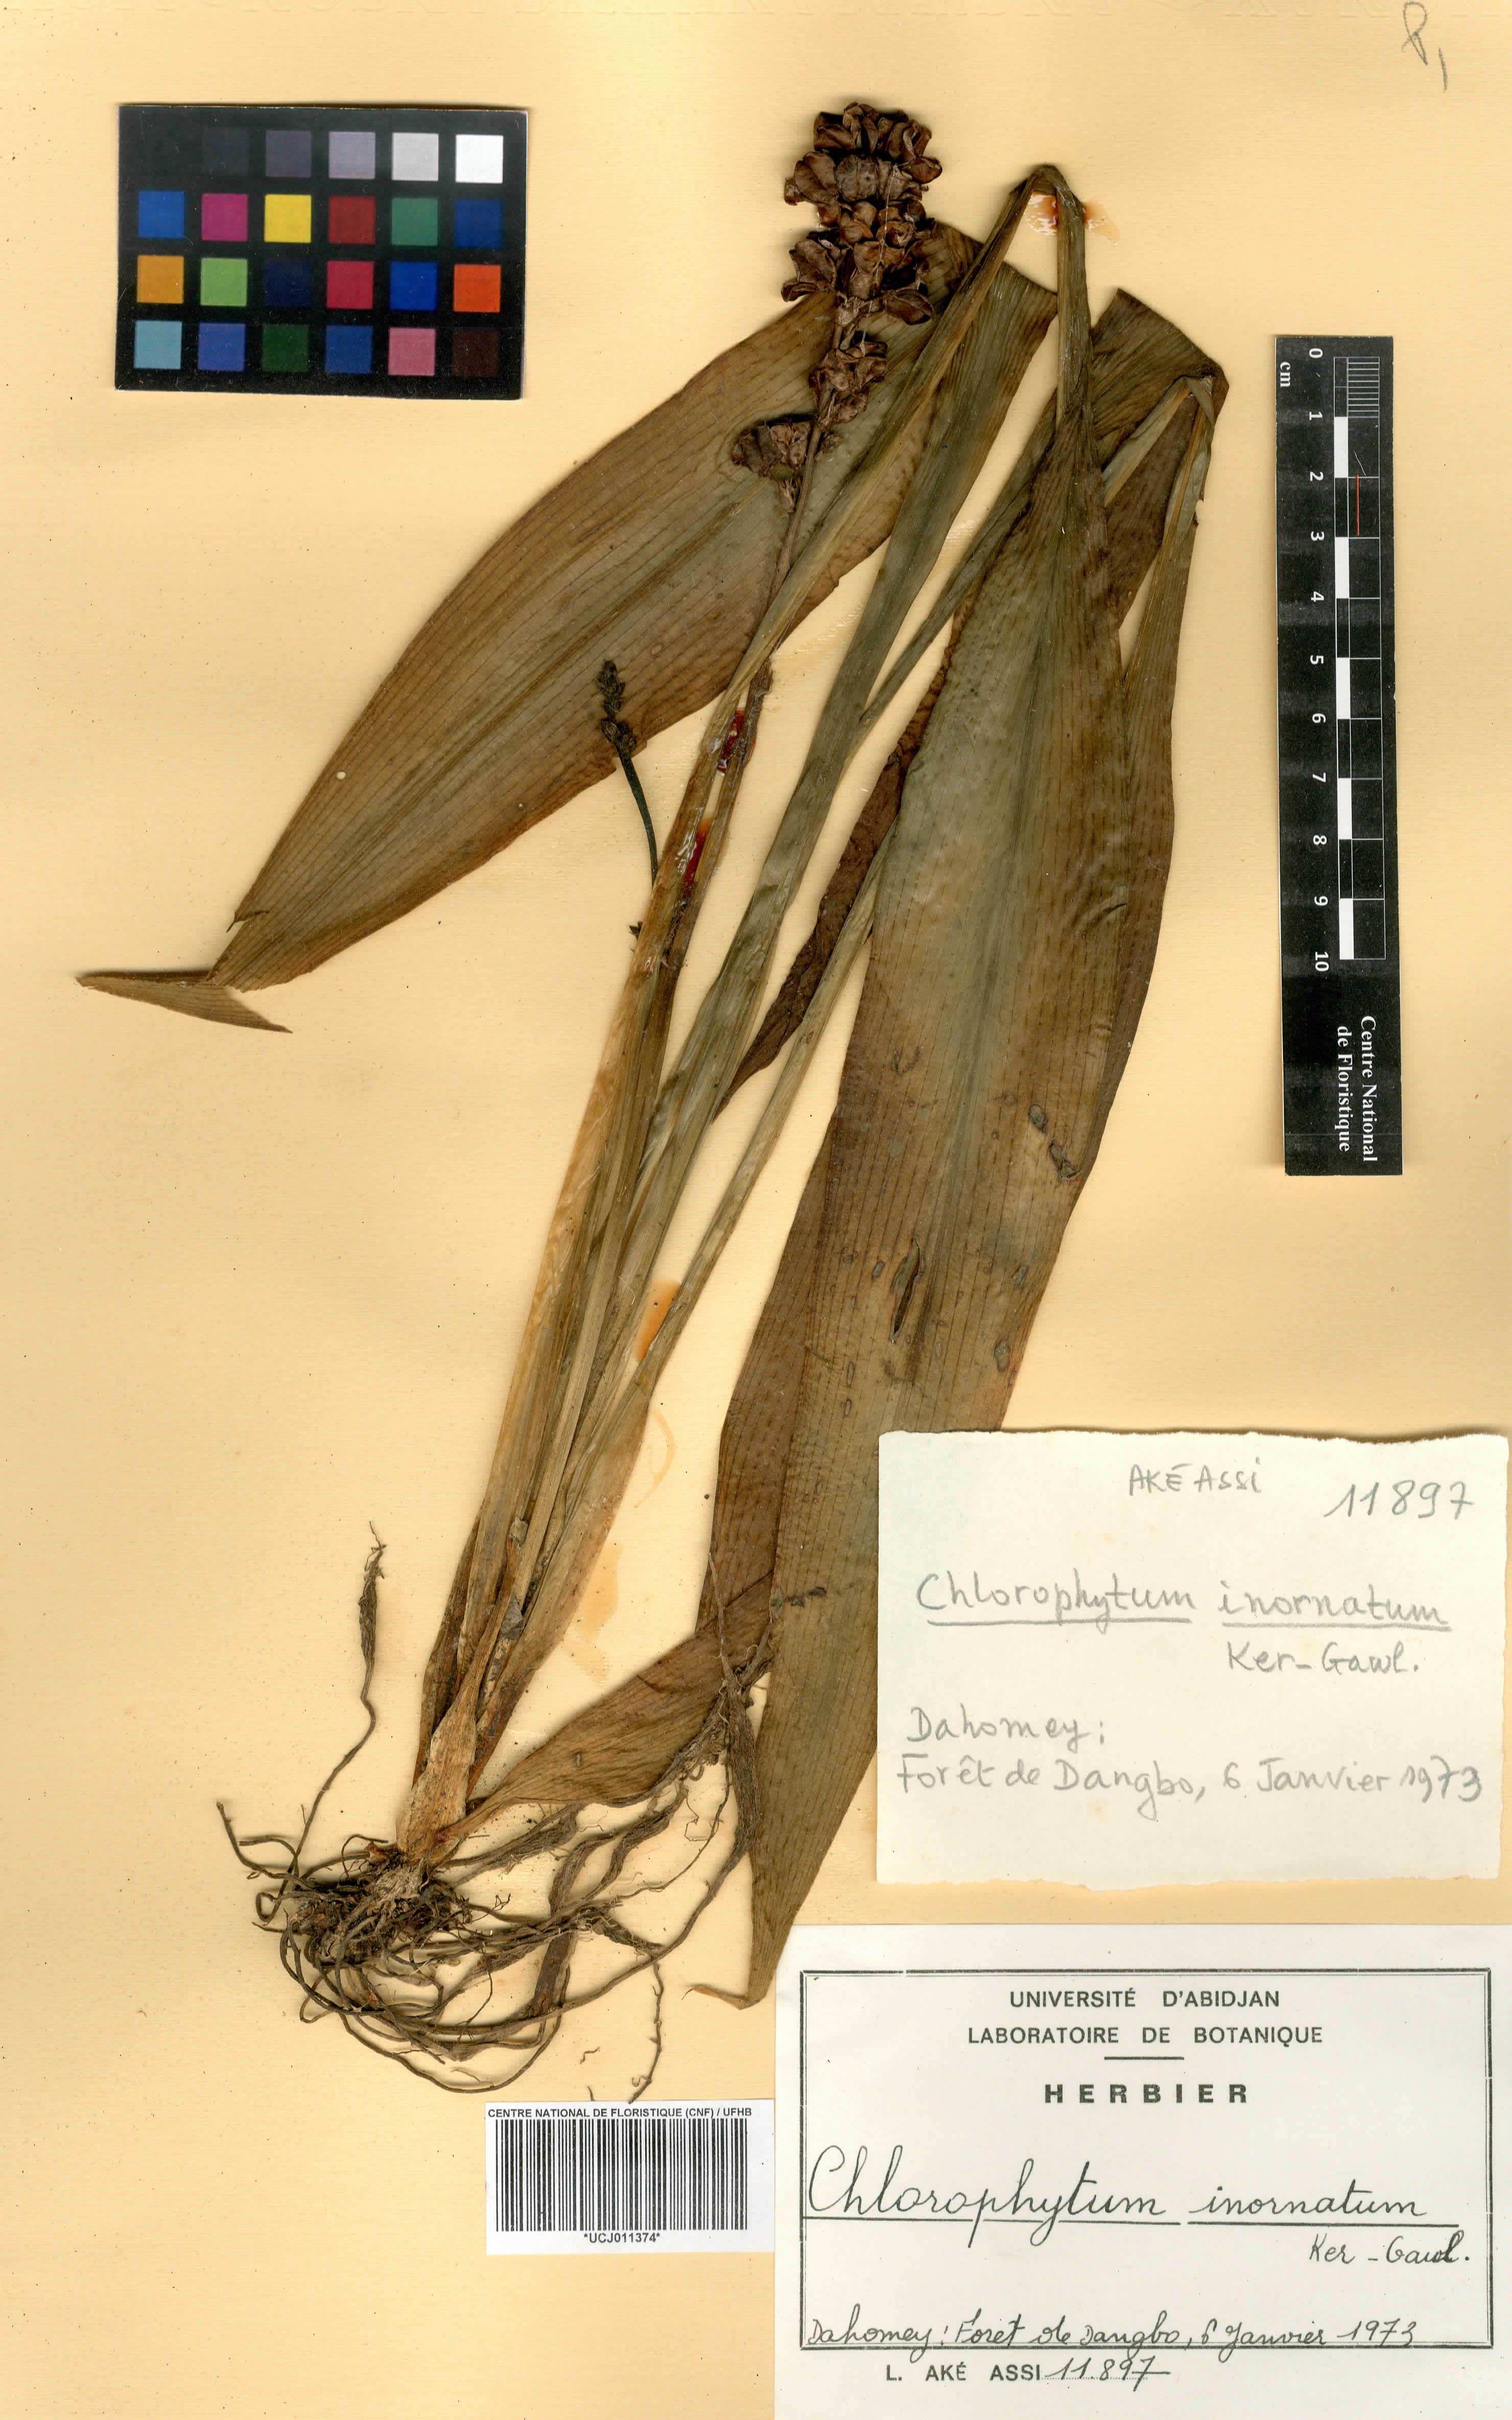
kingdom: Plantae
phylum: Tracheophyta
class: Liliopsida
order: Asparagales
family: Asparagaceae
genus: Chlorophytum
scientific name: Chlorophytum inornatum
